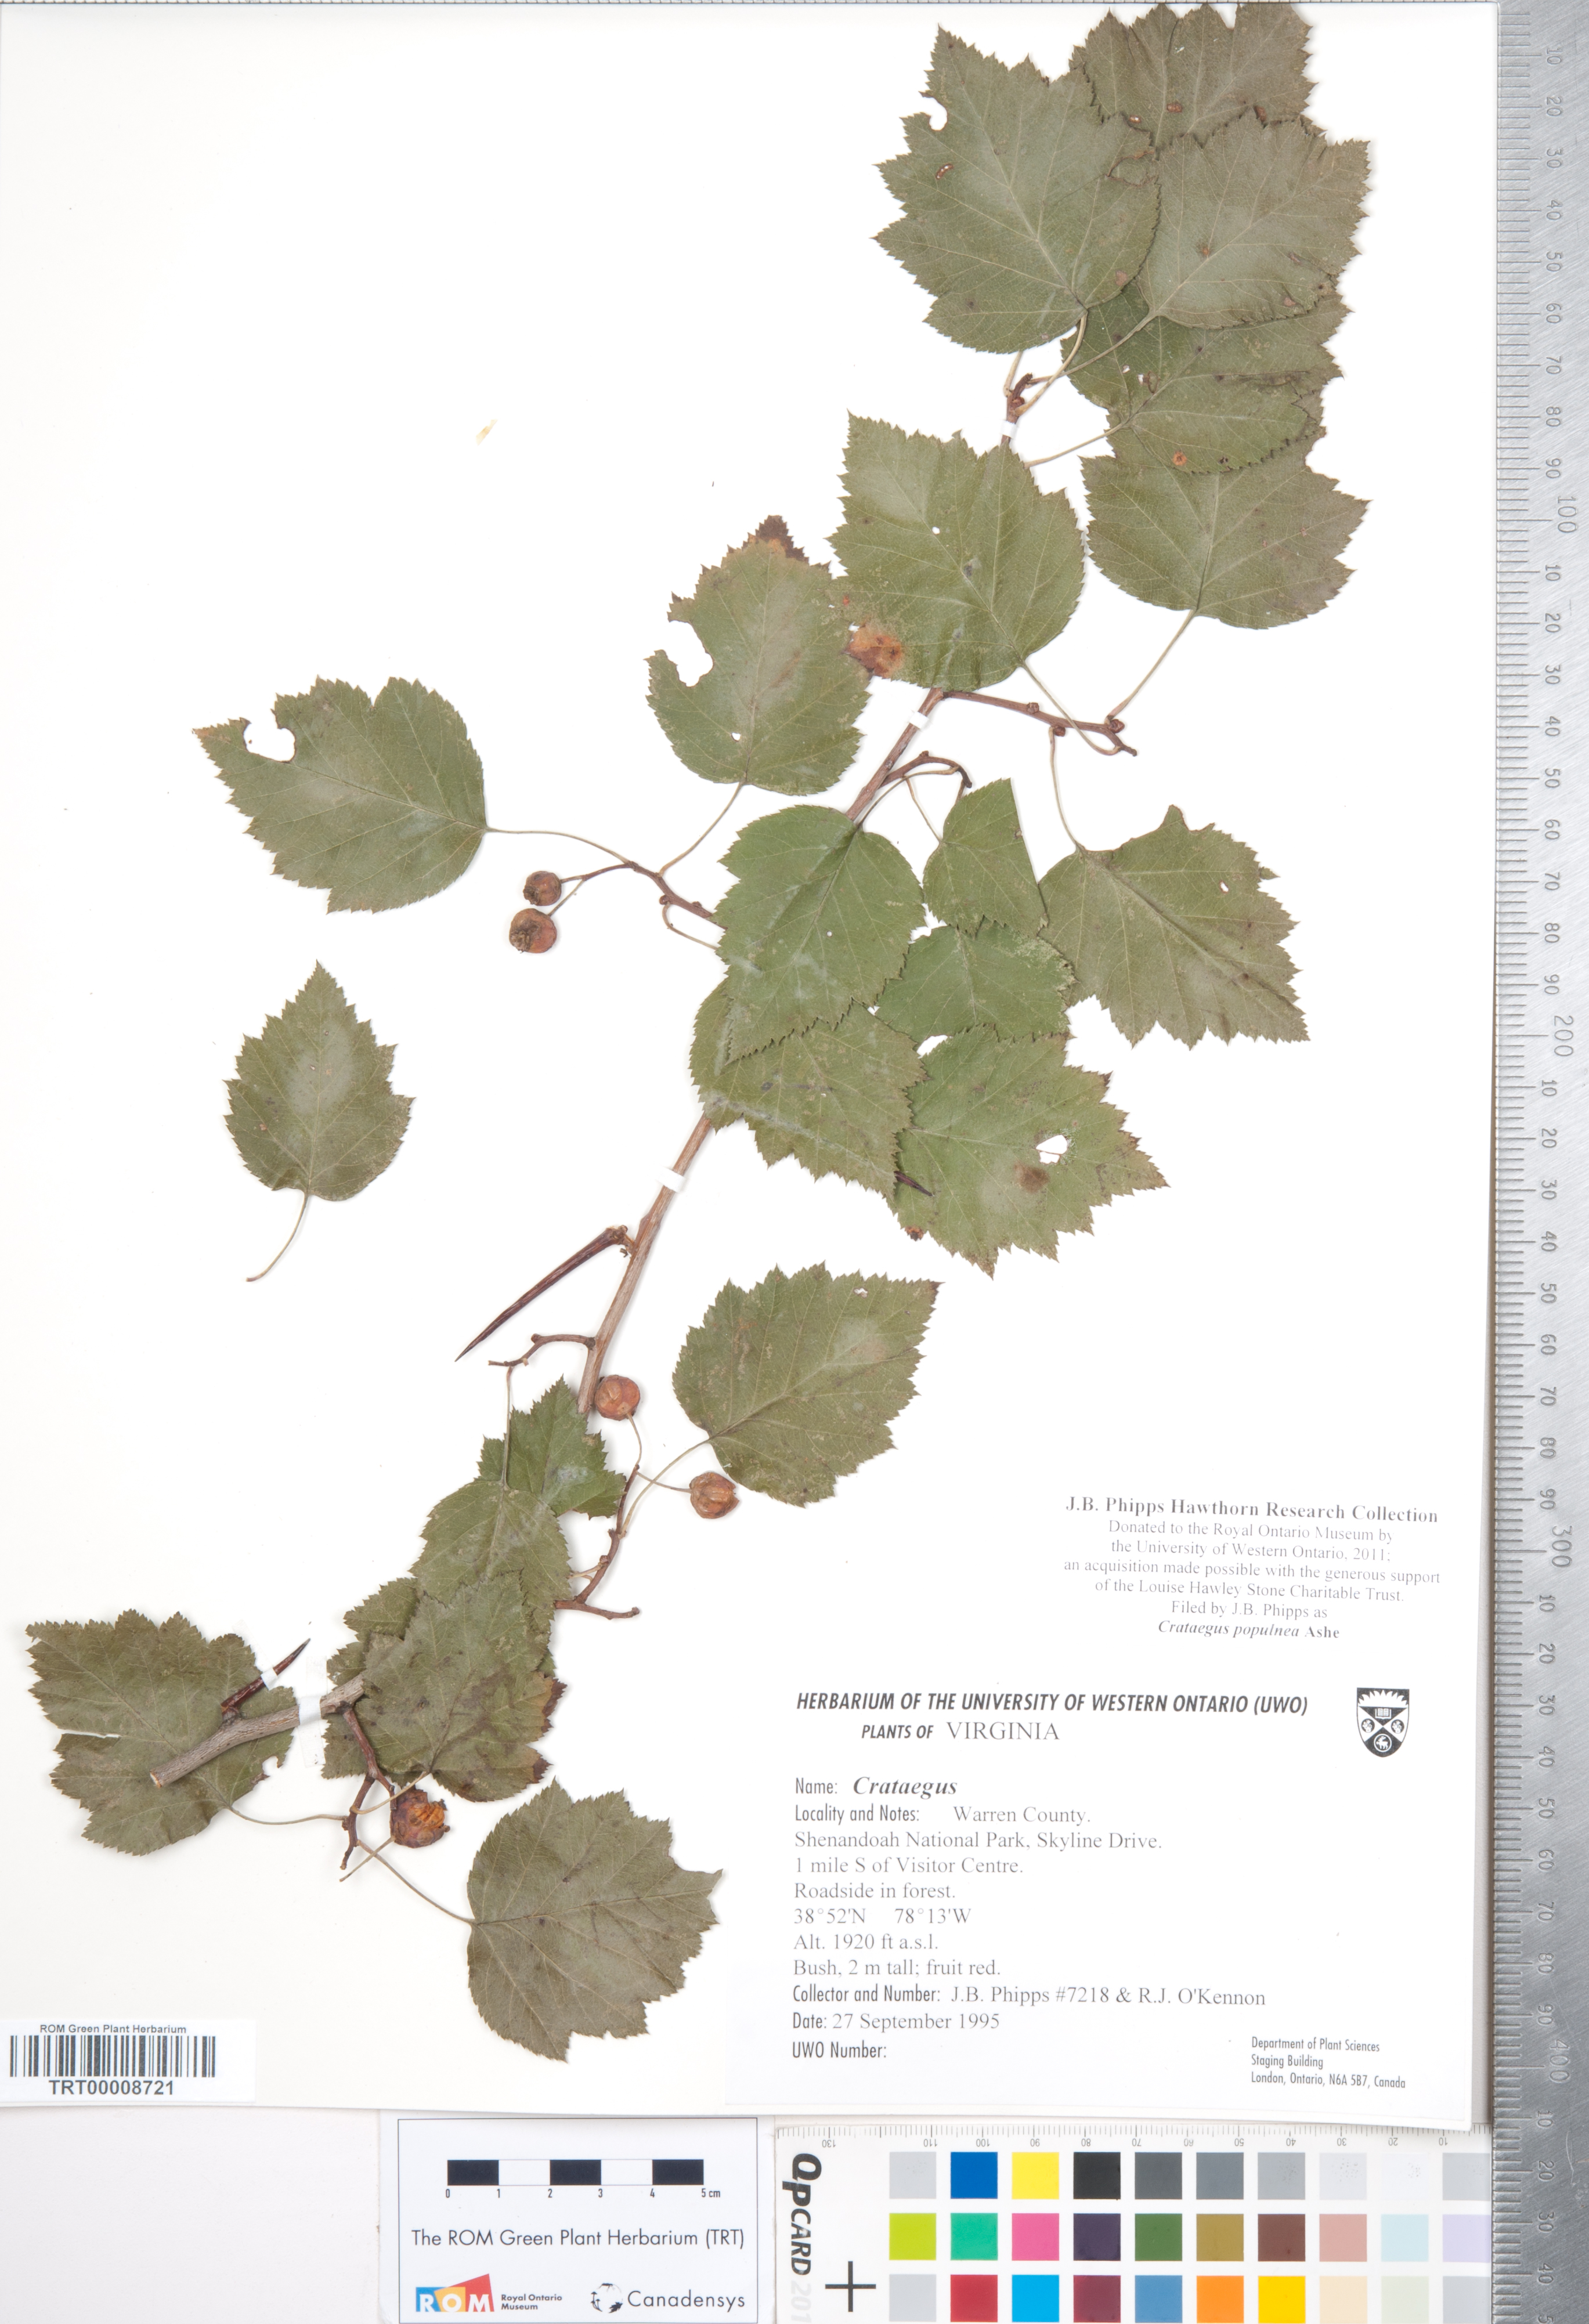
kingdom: Plantae
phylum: Tracheophyta
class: Magnoliopsida
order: Rosales
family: Rosaceae
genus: Crataegus
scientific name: Crataegus populnea
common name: Adorned hawthorn
